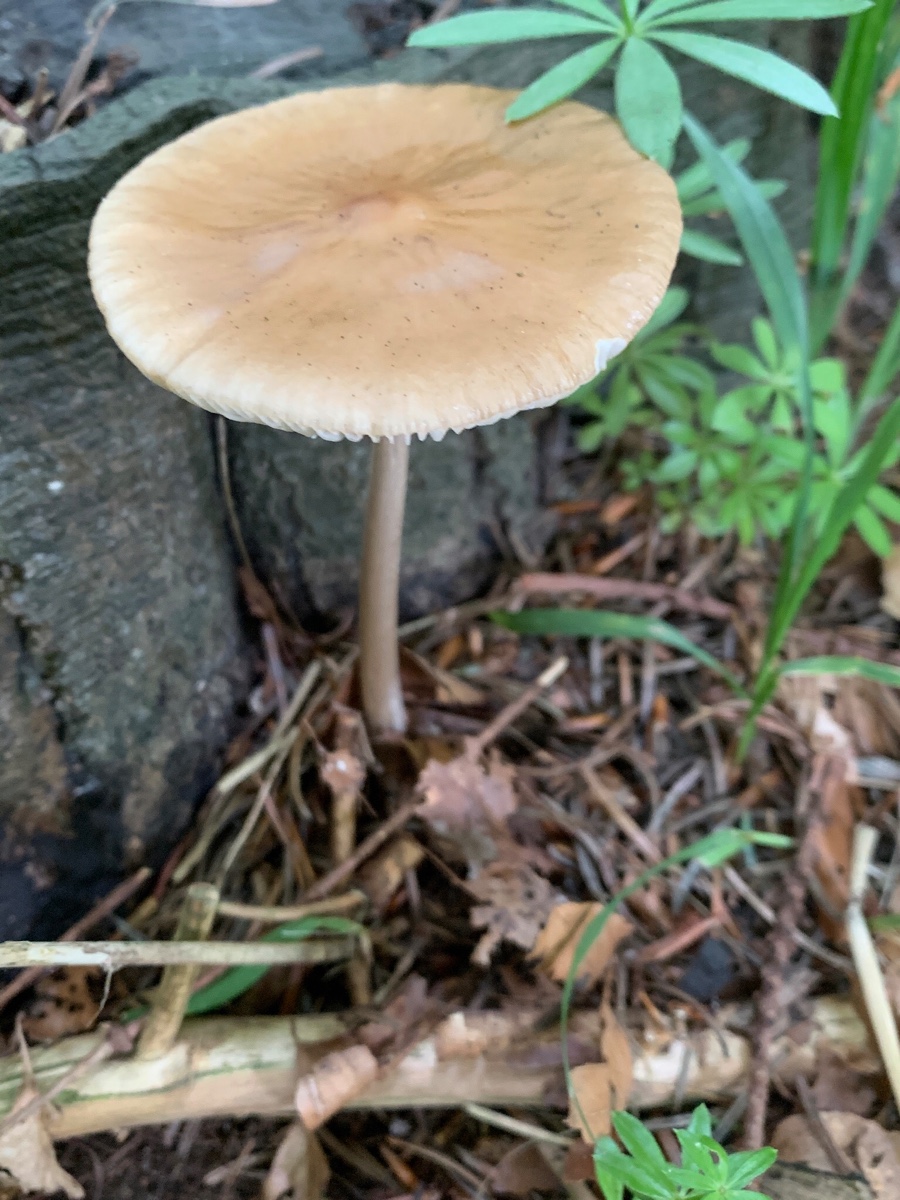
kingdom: Fungi
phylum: Basidiomycota
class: Agaricomycetes
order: Agaricales
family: Physalacriaceae
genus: Hymenopellis
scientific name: Hymenopellis radicata
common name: almindelig pælerodshat
